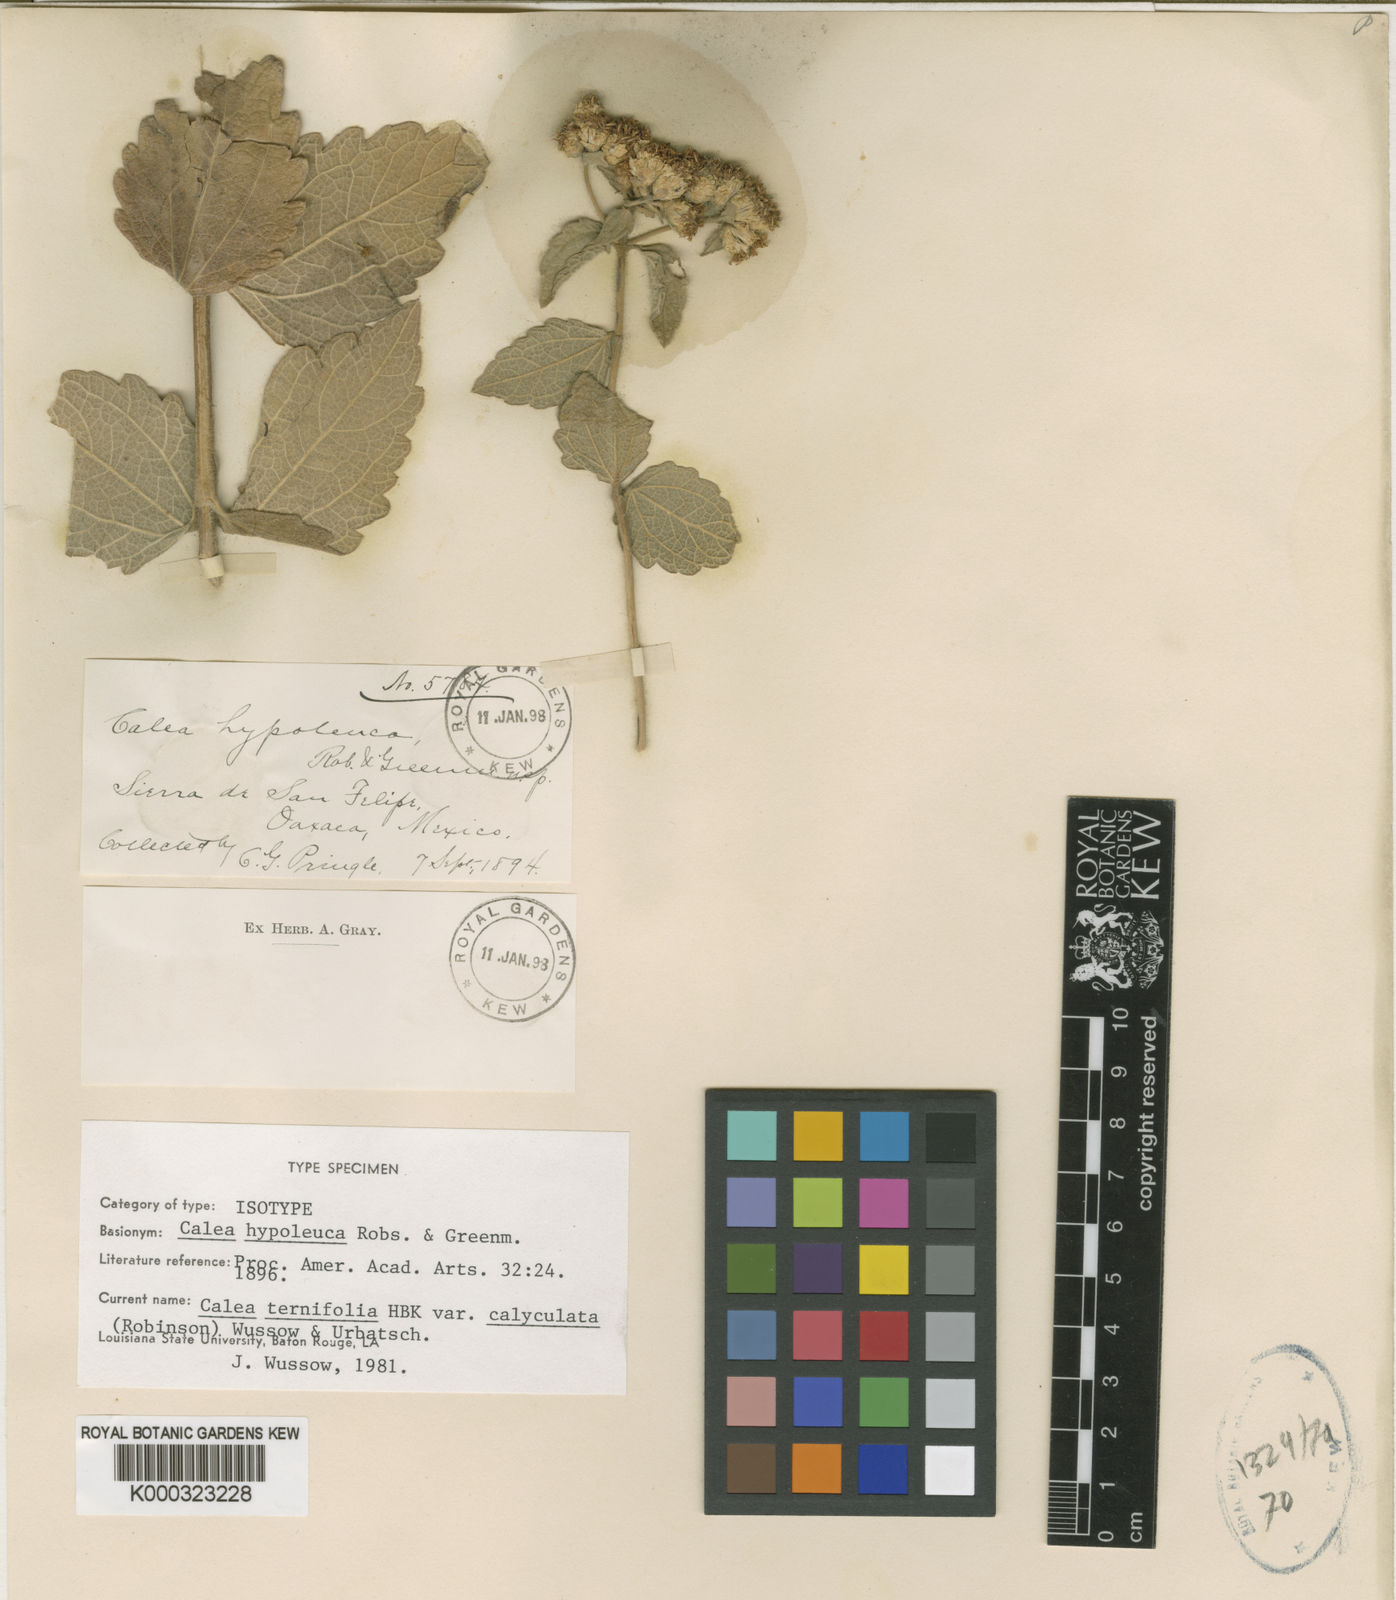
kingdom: Plantae
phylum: Tracheophyta
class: Magnoliopsida
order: Asterales
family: Asteraceae
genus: Calea
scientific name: Calea ternifolia
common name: Mexican calea
